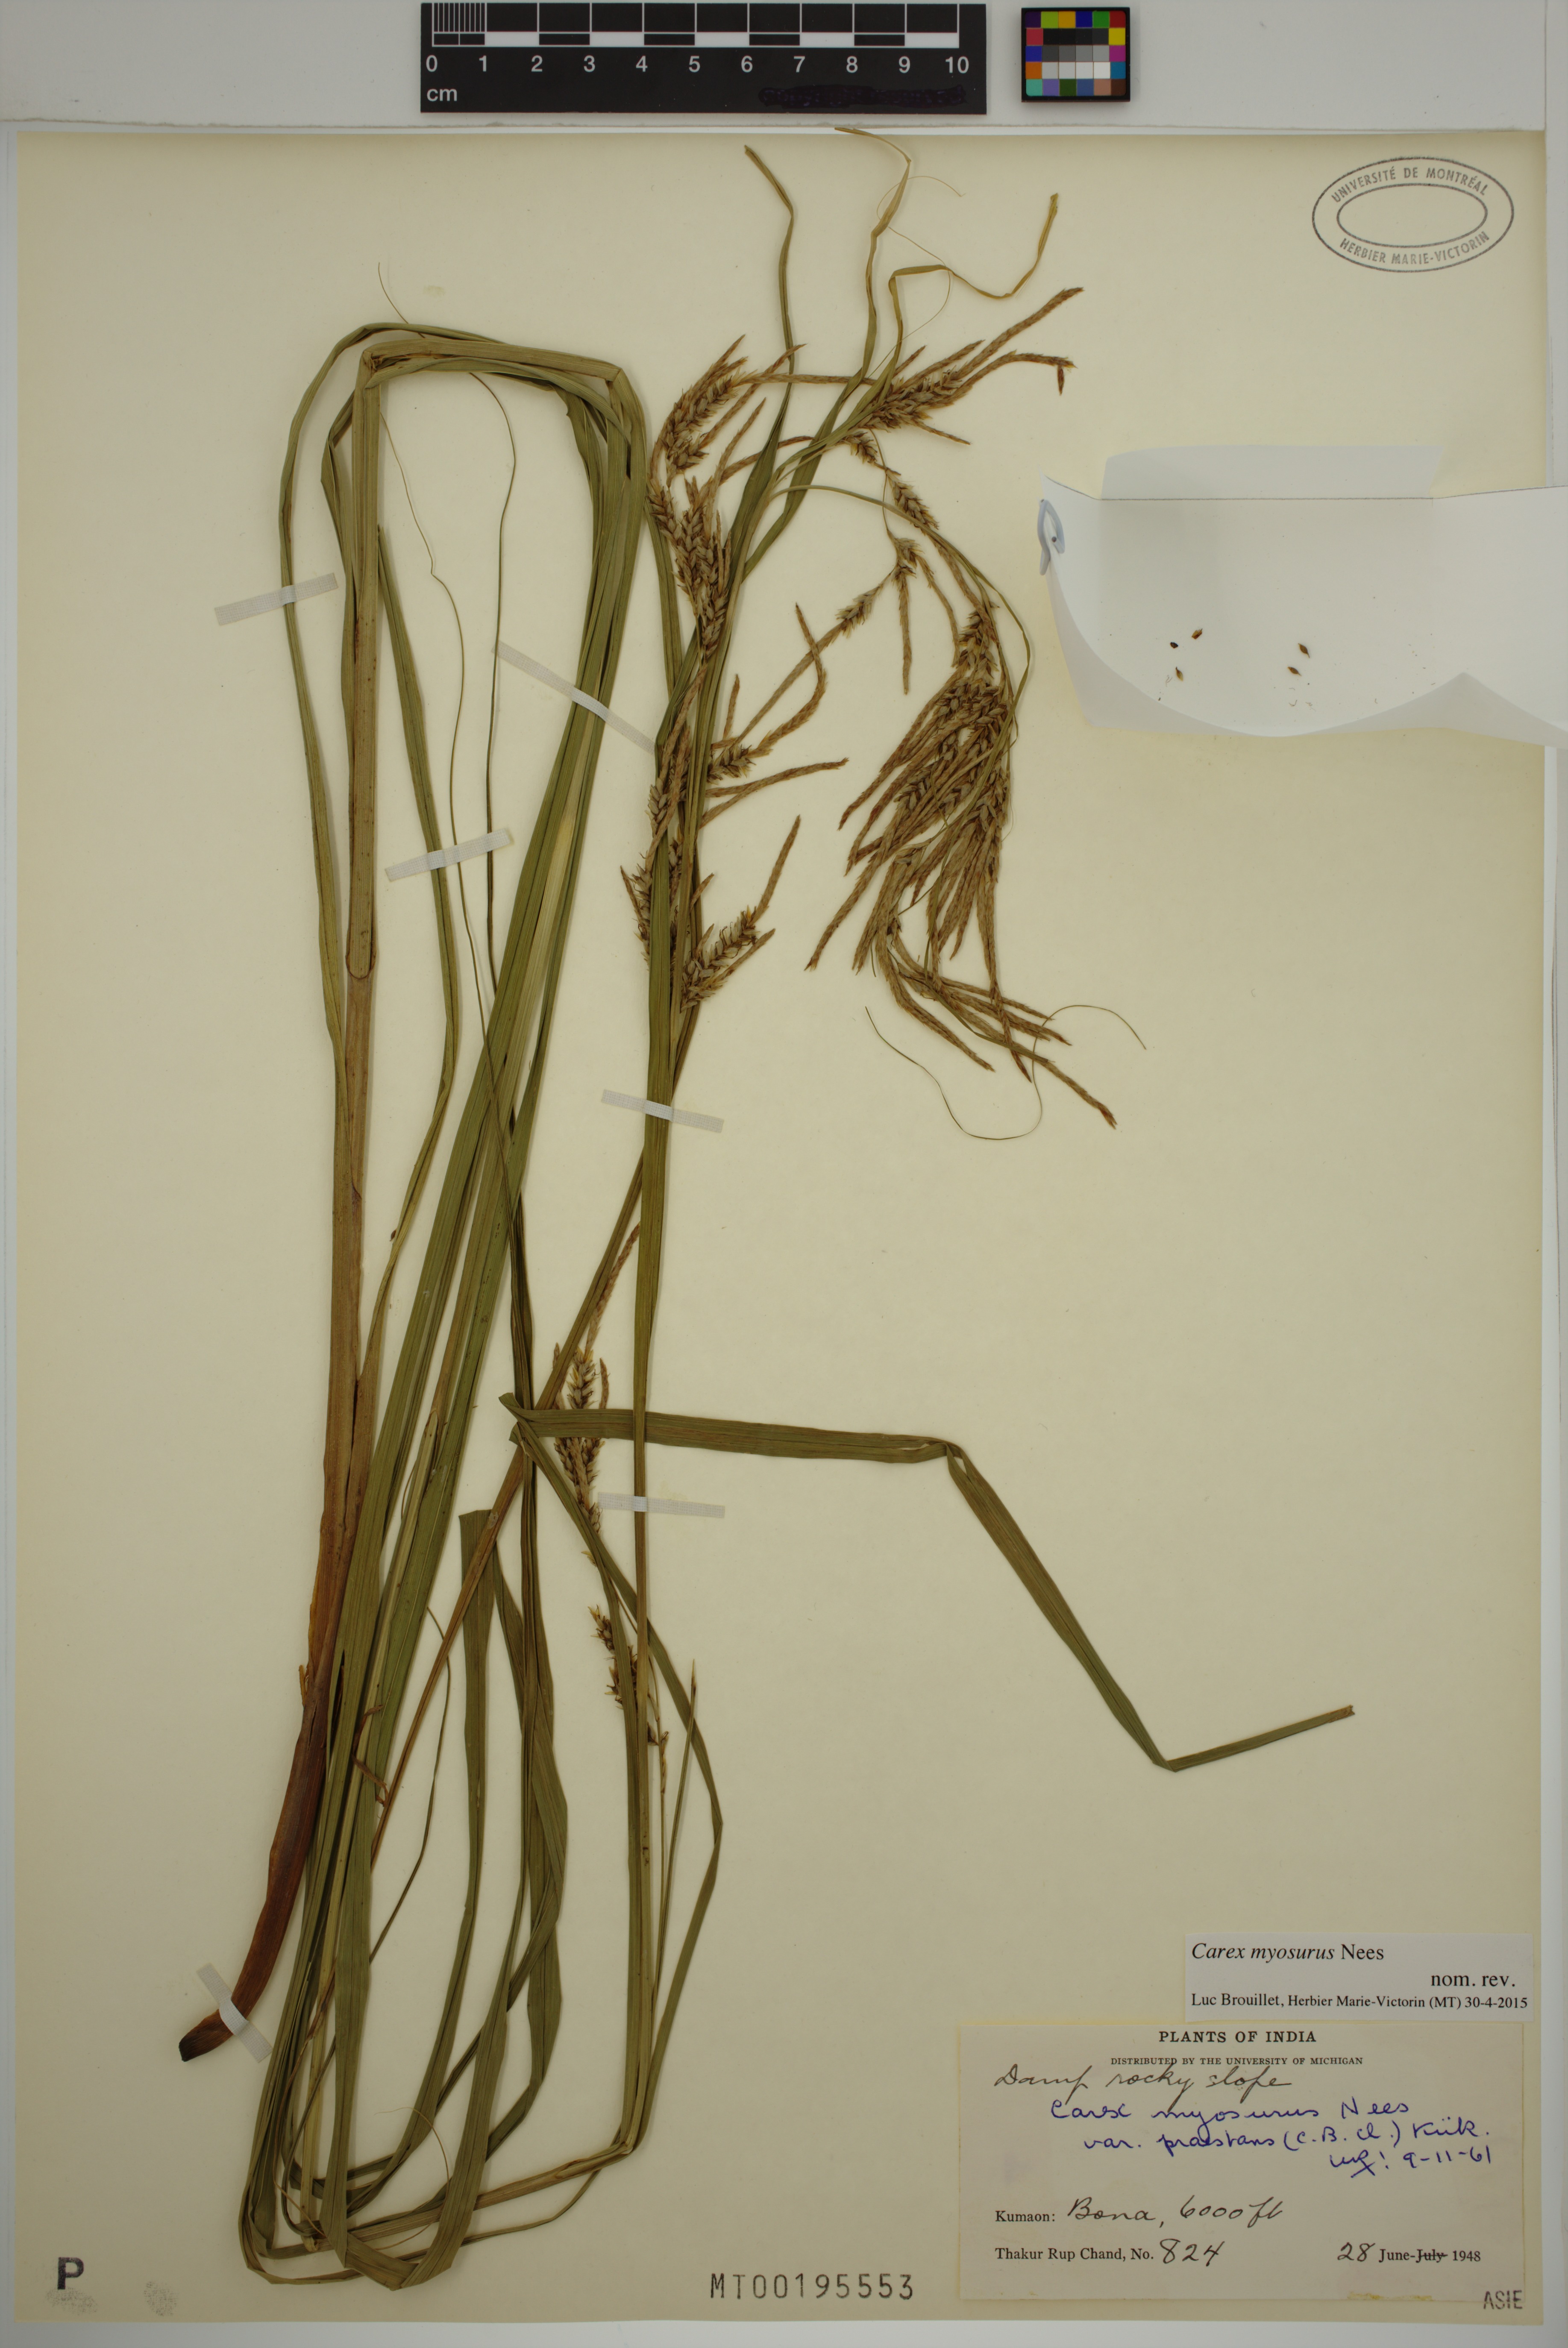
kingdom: Plantae
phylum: Tracheophyta
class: Liliopsida
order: Poales
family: Cyperaceae
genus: Carex
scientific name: Carex myosurus
